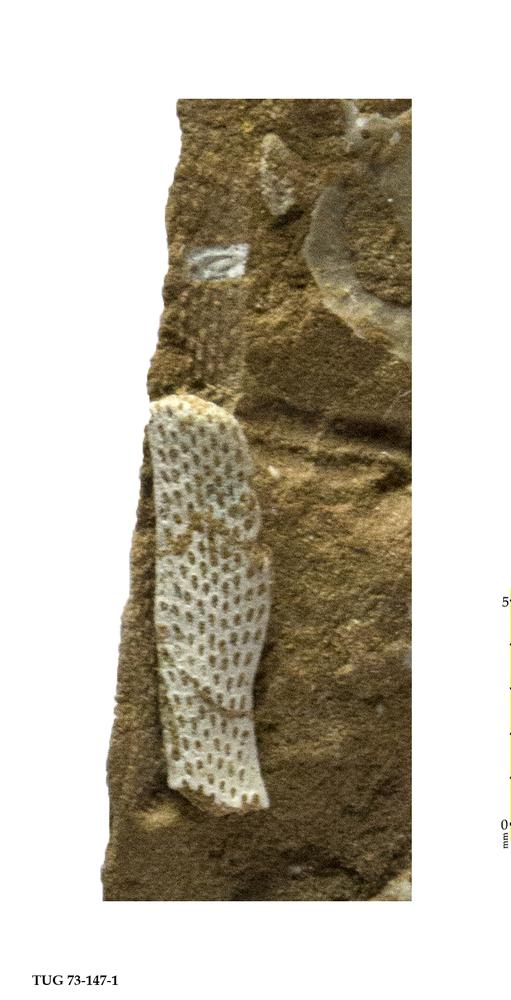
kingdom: Animalia
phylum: Bryozoa
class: Stenolaemata
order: Cryptostomida
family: Rhinidictyidae
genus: Trigonodictya
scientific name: Trigonodictya bifurcata
